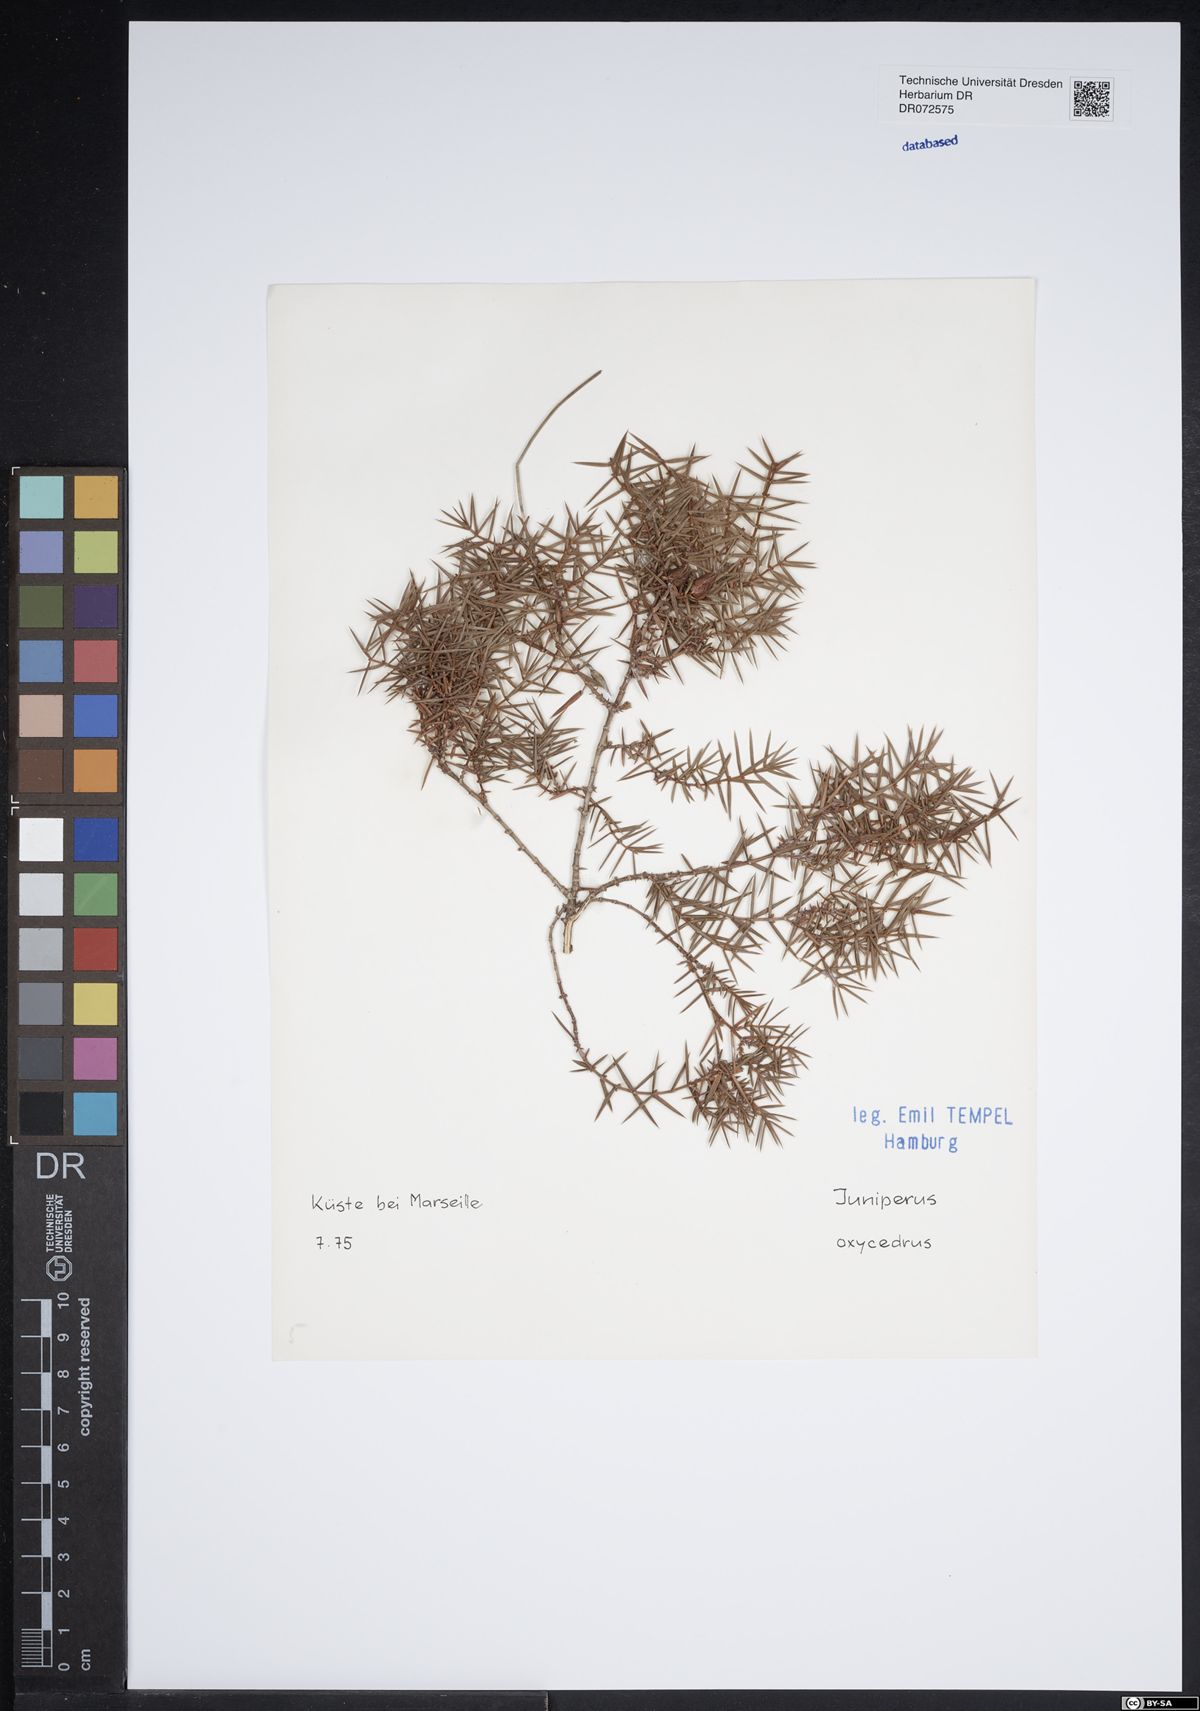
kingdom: Plantae
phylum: Tracheophyta
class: Pinopsida
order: Pinales
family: Cupressaceae
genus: Juniperus
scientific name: Juniperus oxycedrus
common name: Prickly juniper
